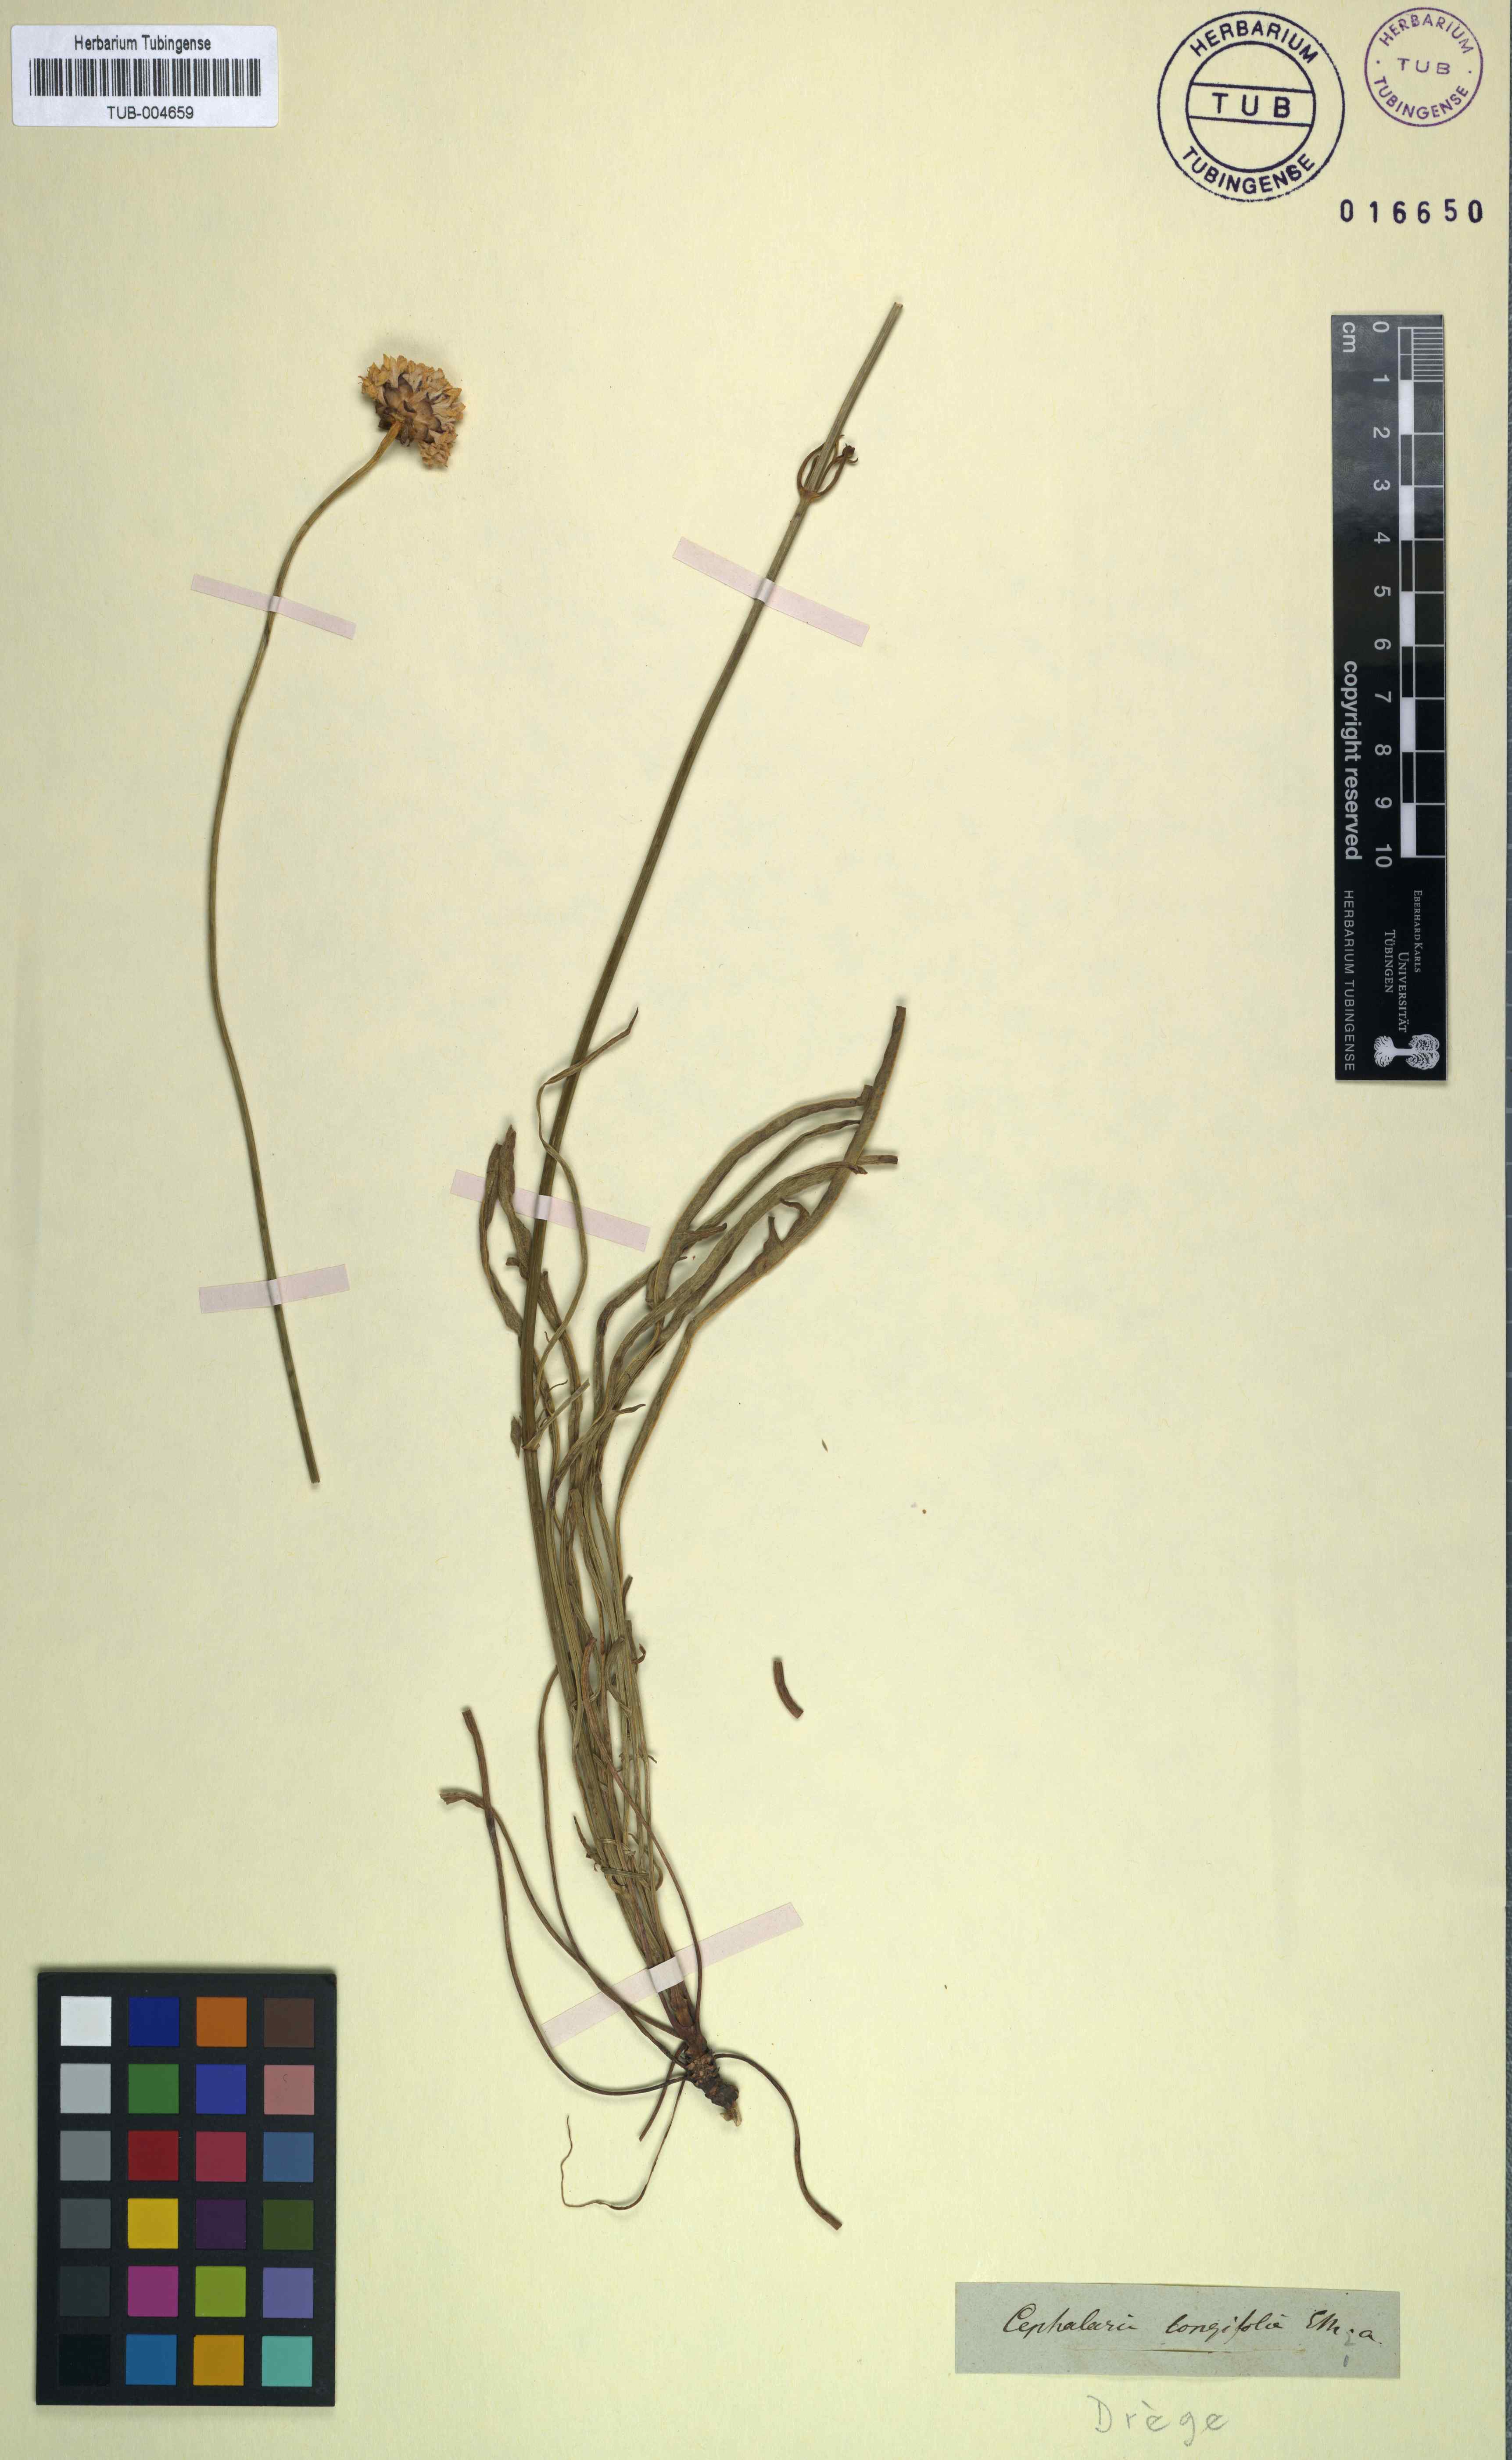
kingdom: Plantae
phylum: Tracheophyta
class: Magnoliopsida
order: Dipsacales
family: Caprifoliaceae
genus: Cephalaria
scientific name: Cephalaria attenuata
